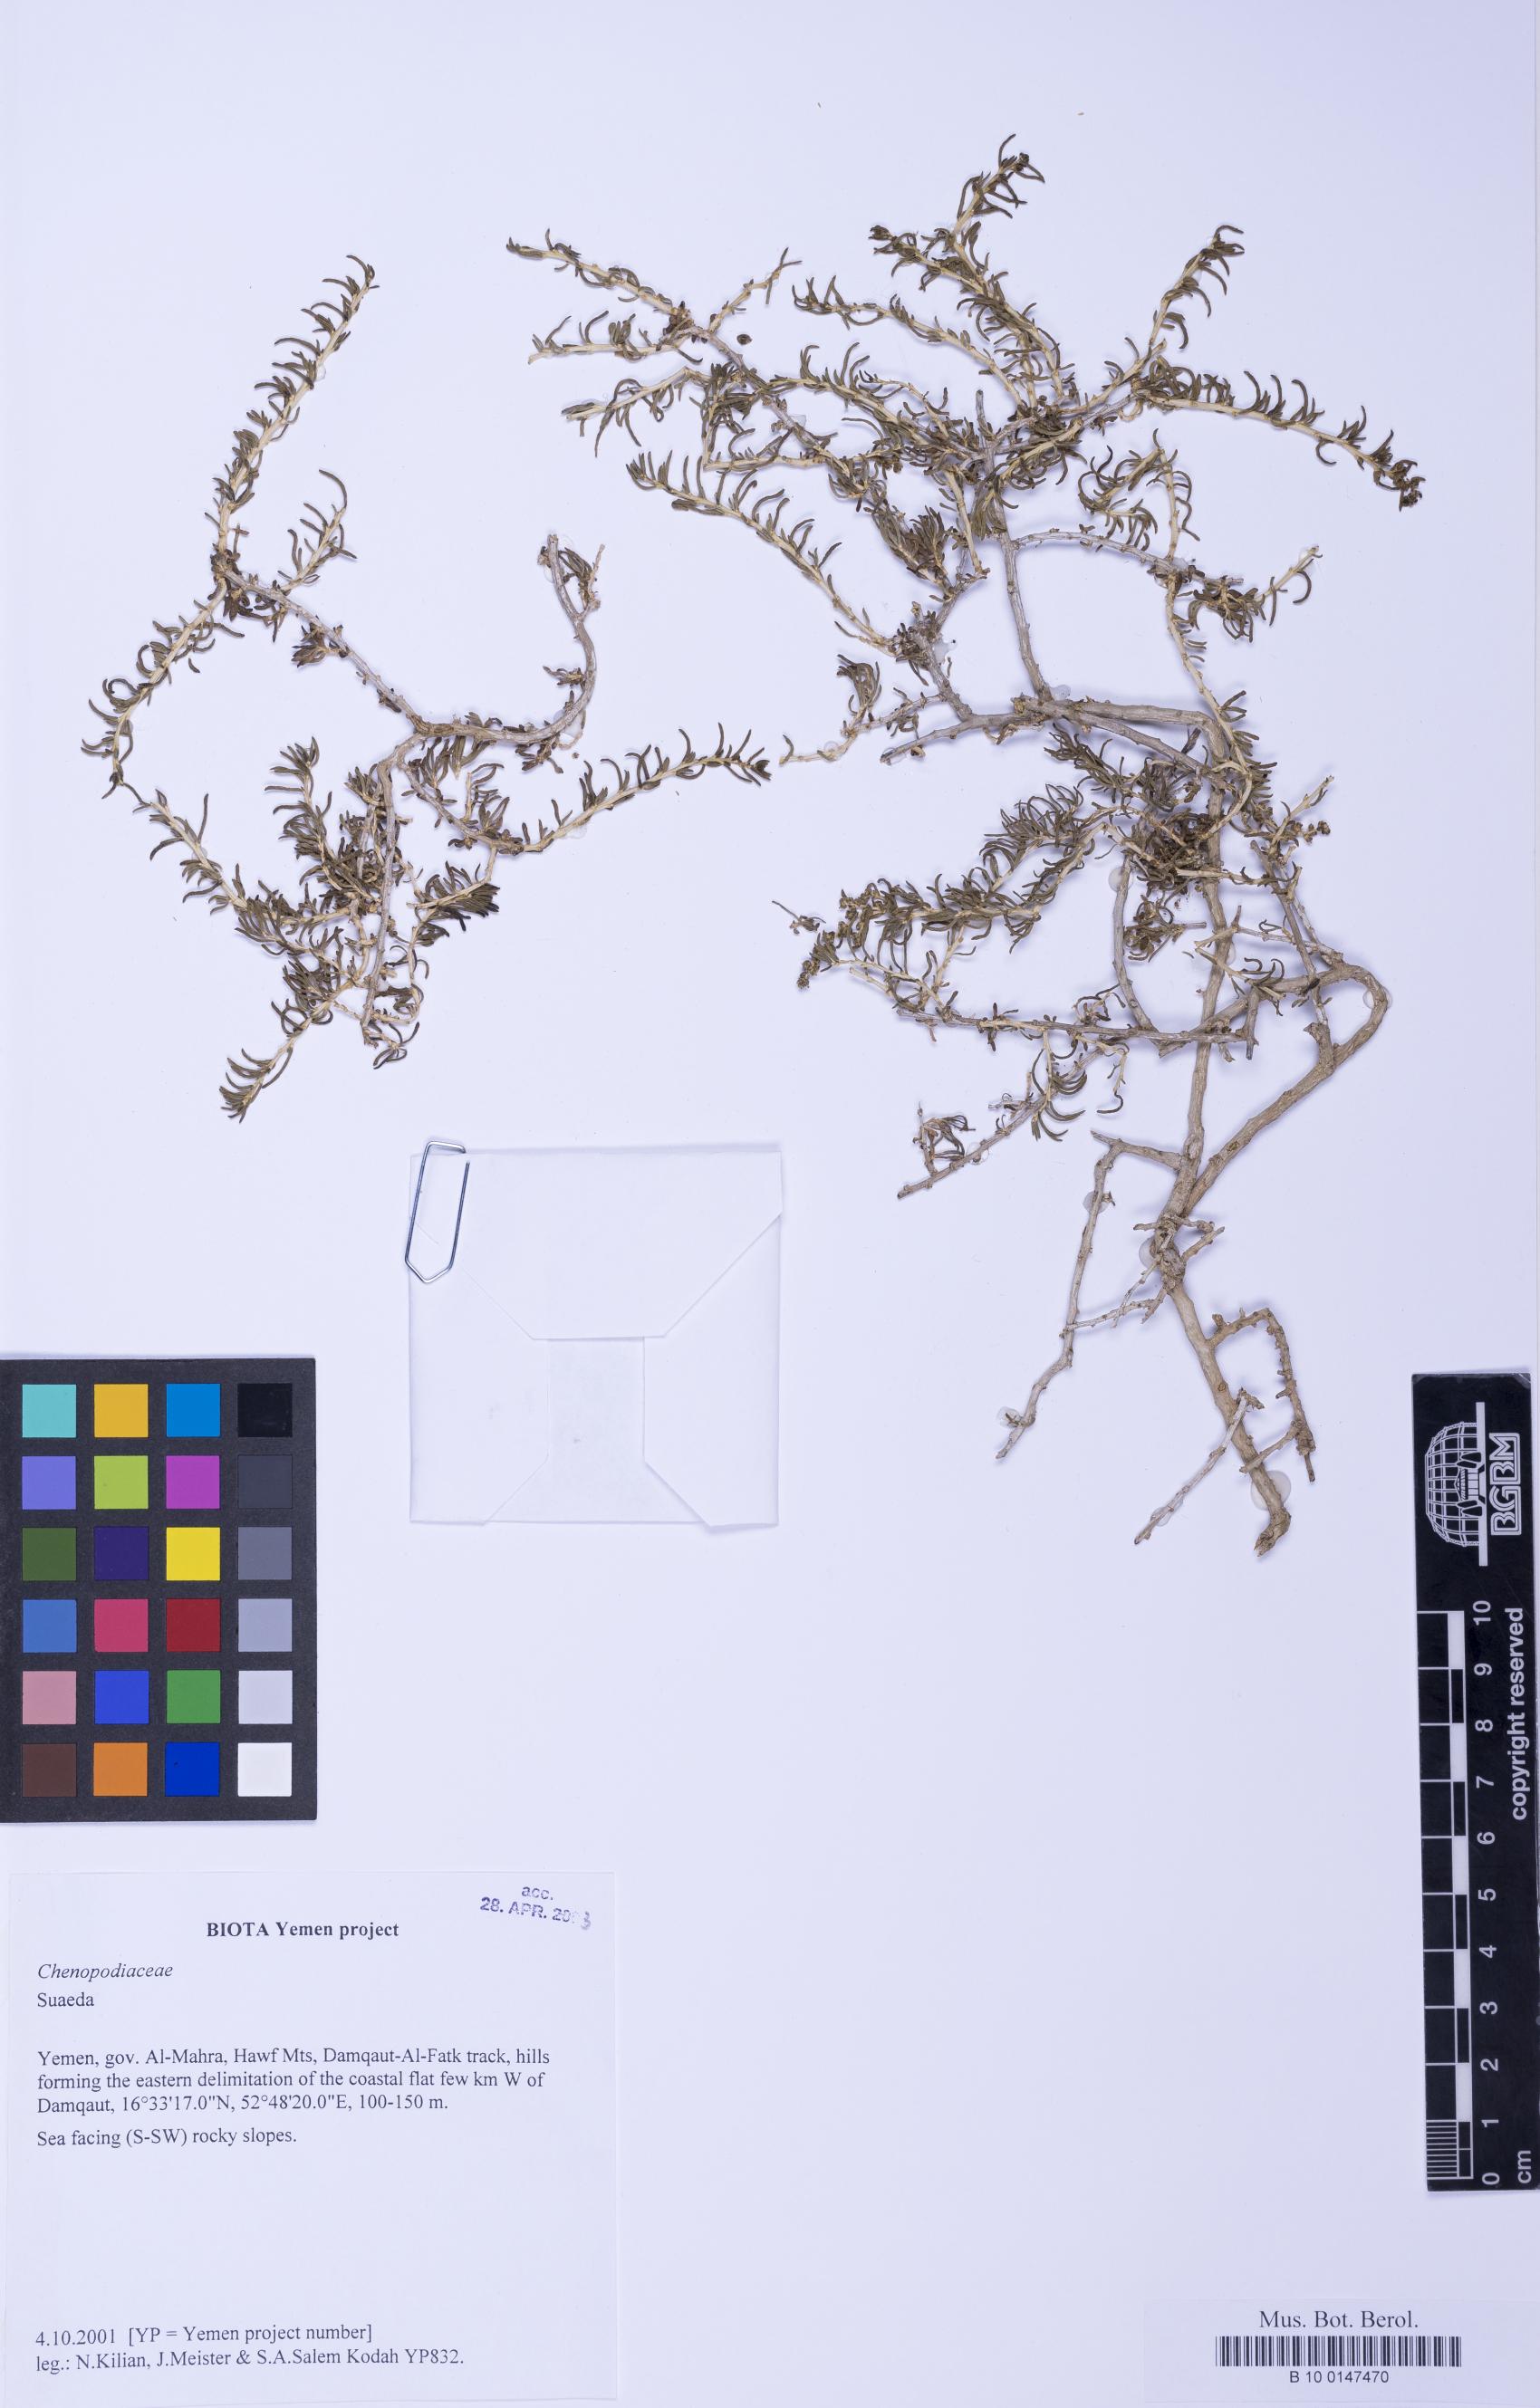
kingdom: Plantae
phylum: Tracheophyta
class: Magnoliopsida
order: Caryophyllales
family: Amaranthaceae
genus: Suaeda
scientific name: Suaeda
